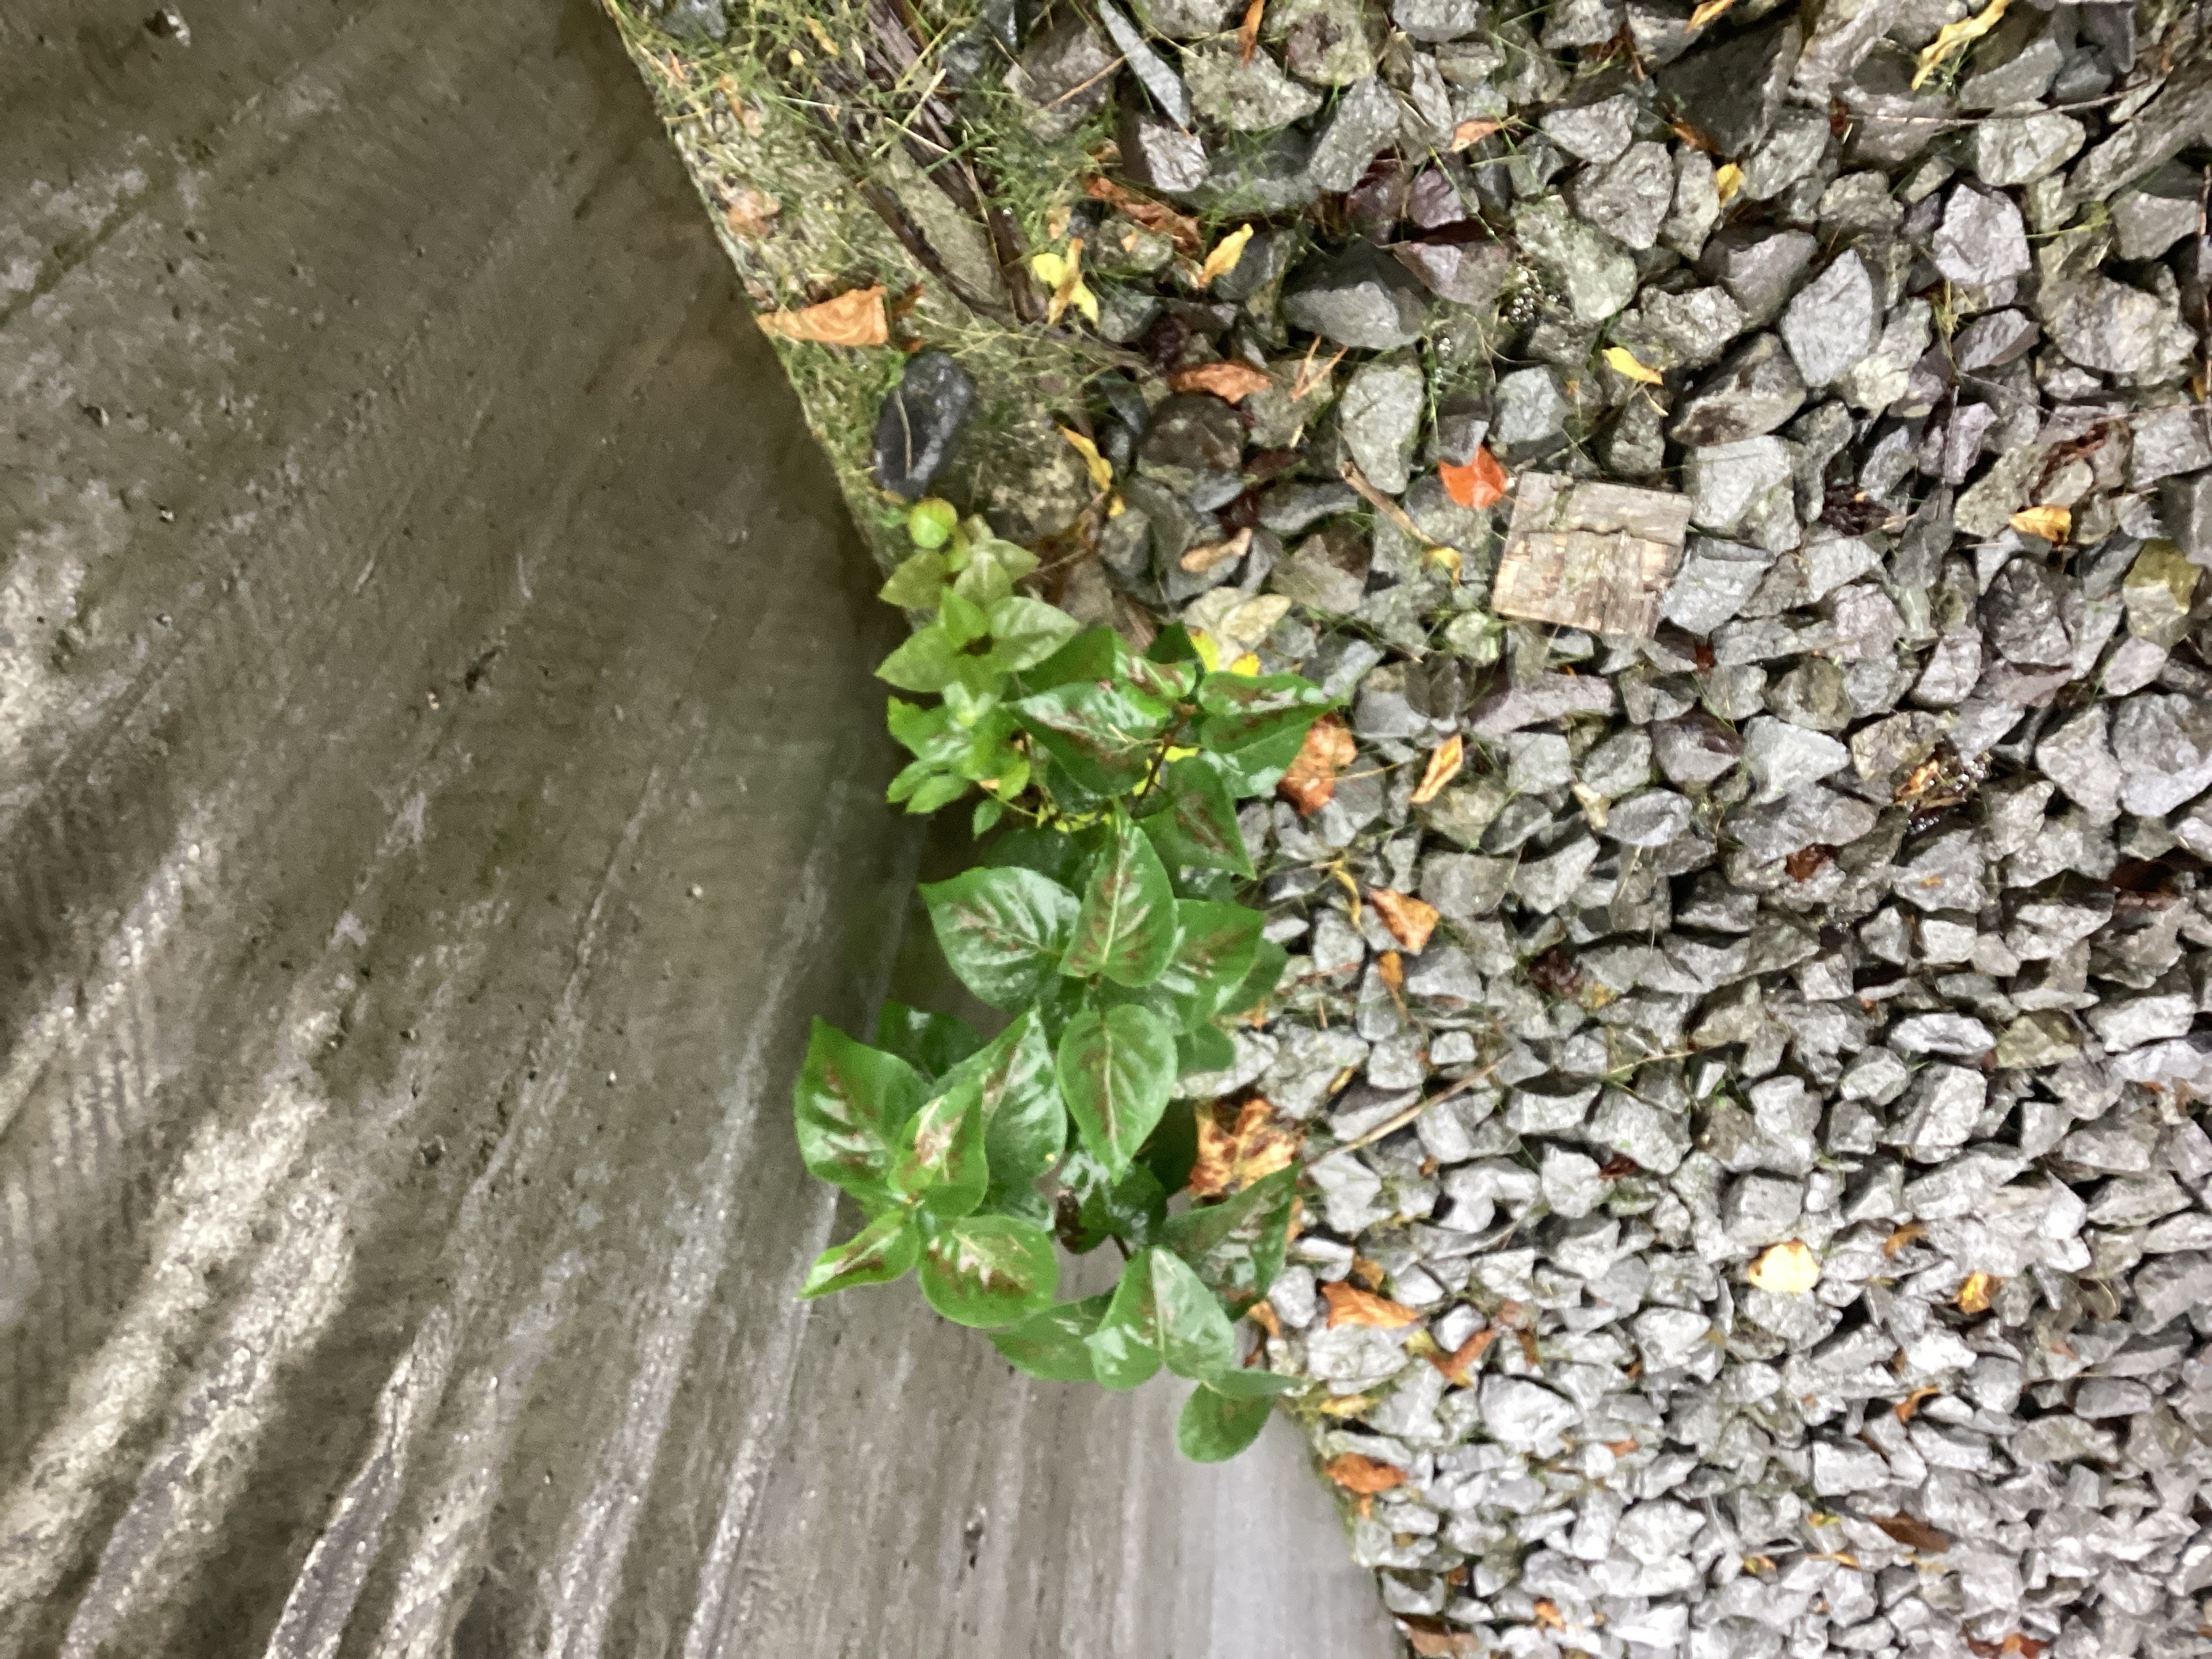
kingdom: Plantae
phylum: Tracheophyta
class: Magnoliopsida
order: Lamiales
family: Oleaceae
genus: Syringa
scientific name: Syringa vulgaris
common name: syrin
